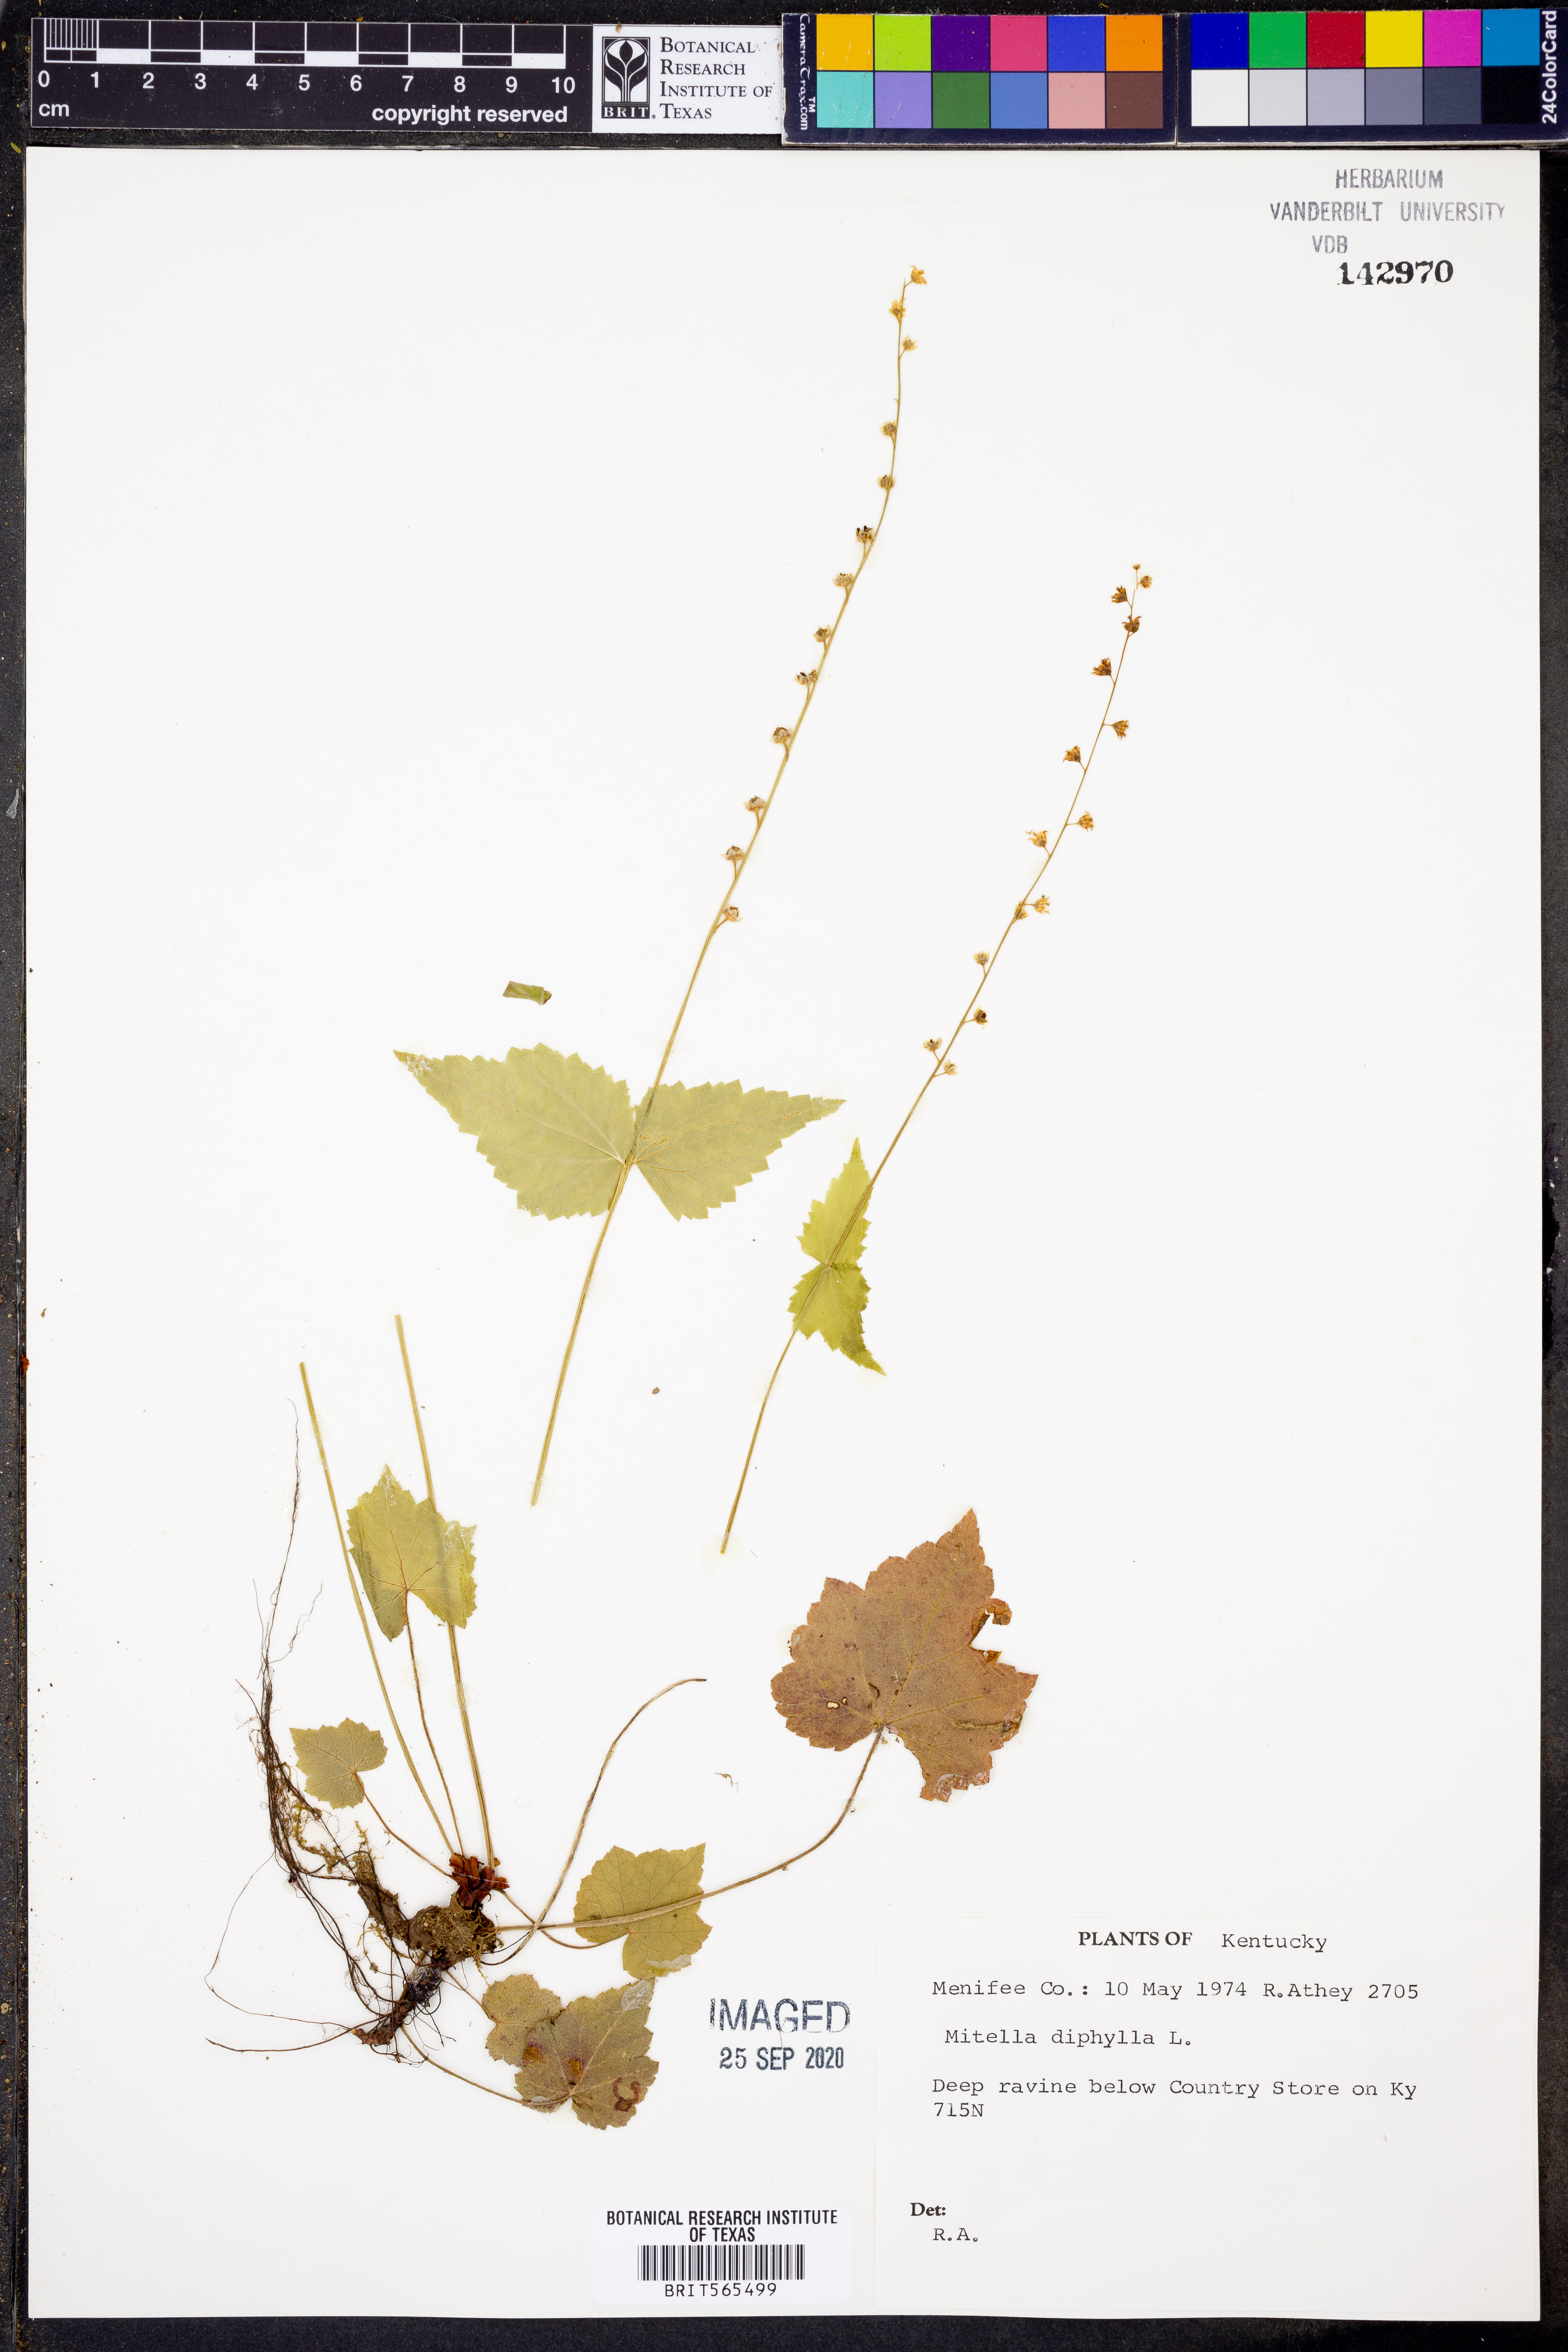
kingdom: Plantae
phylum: Tracheophyta
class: Magnoliopsida
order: Saxifragales
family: Saxifragaceae
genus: Mitella
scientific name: Mitella diphylla
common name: Coolwort
